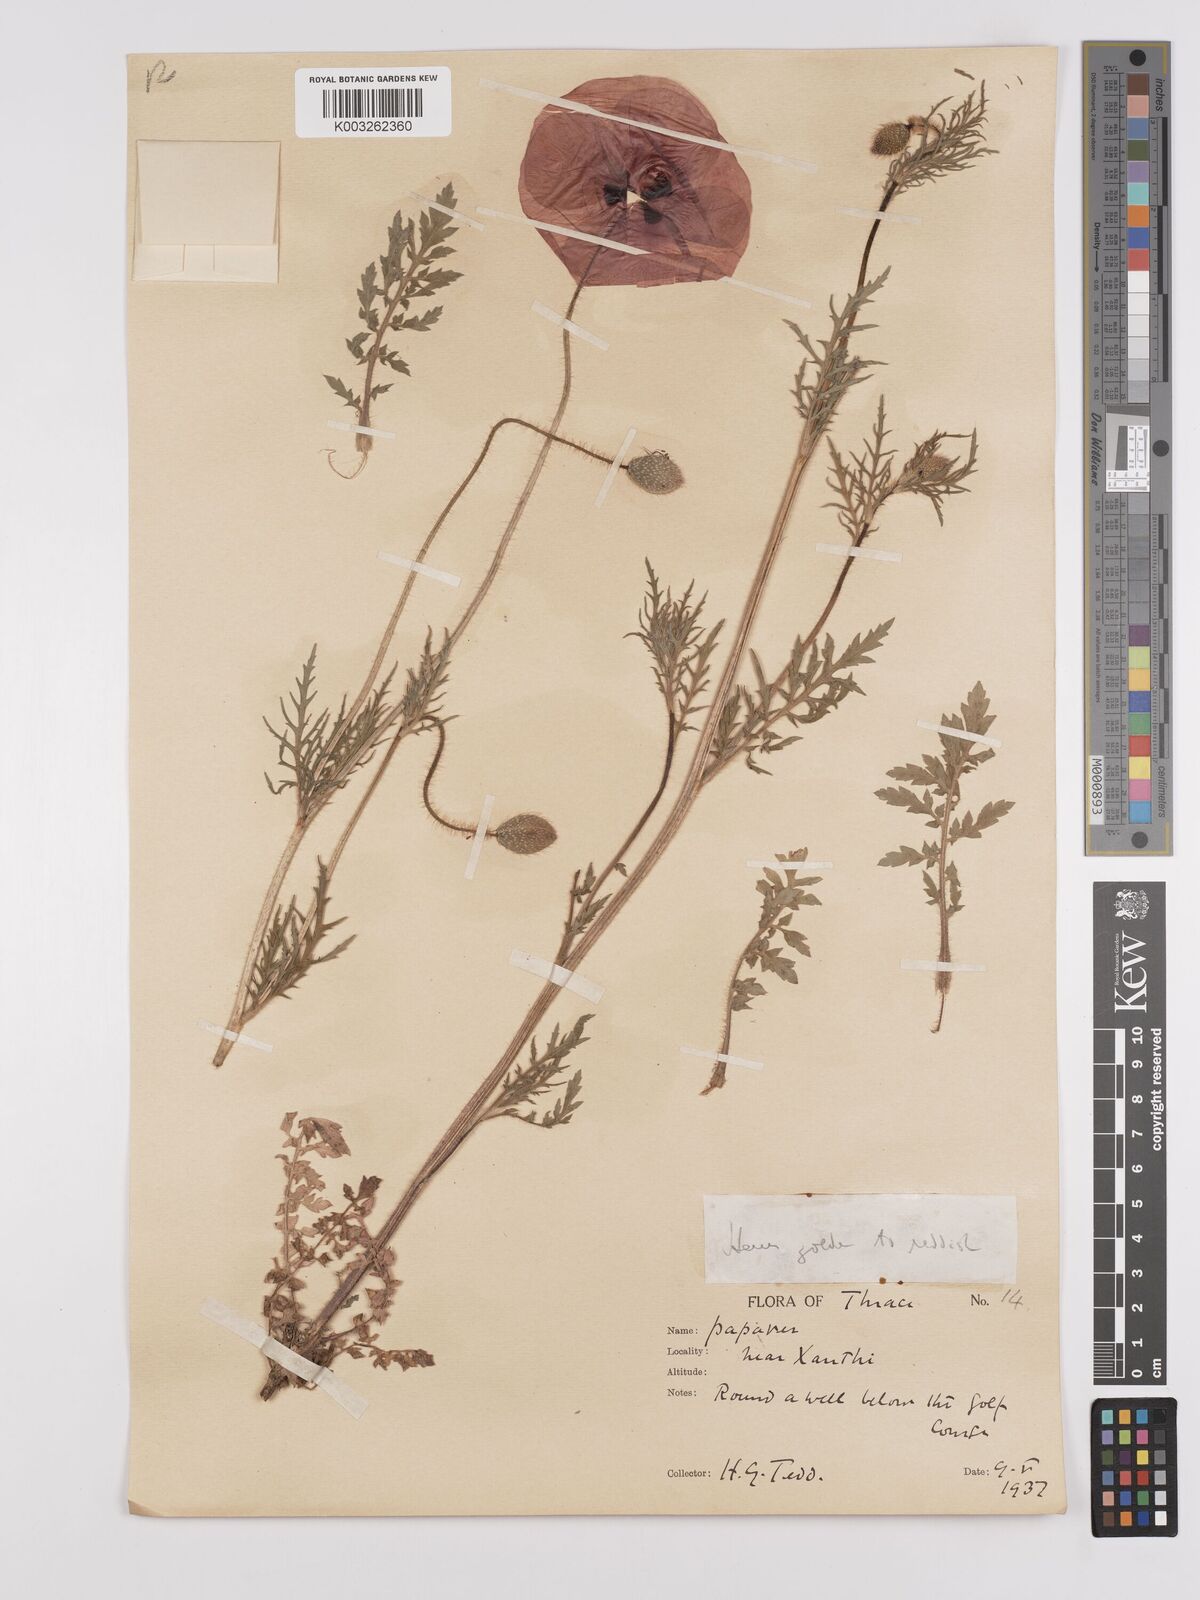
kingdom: Plantae
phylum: Tracheophyta
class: Magnoliopsida
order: Ranunculales
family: Papaveraceae
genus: Papaver
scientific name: Papaver rhoeas
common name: Corn poppy
